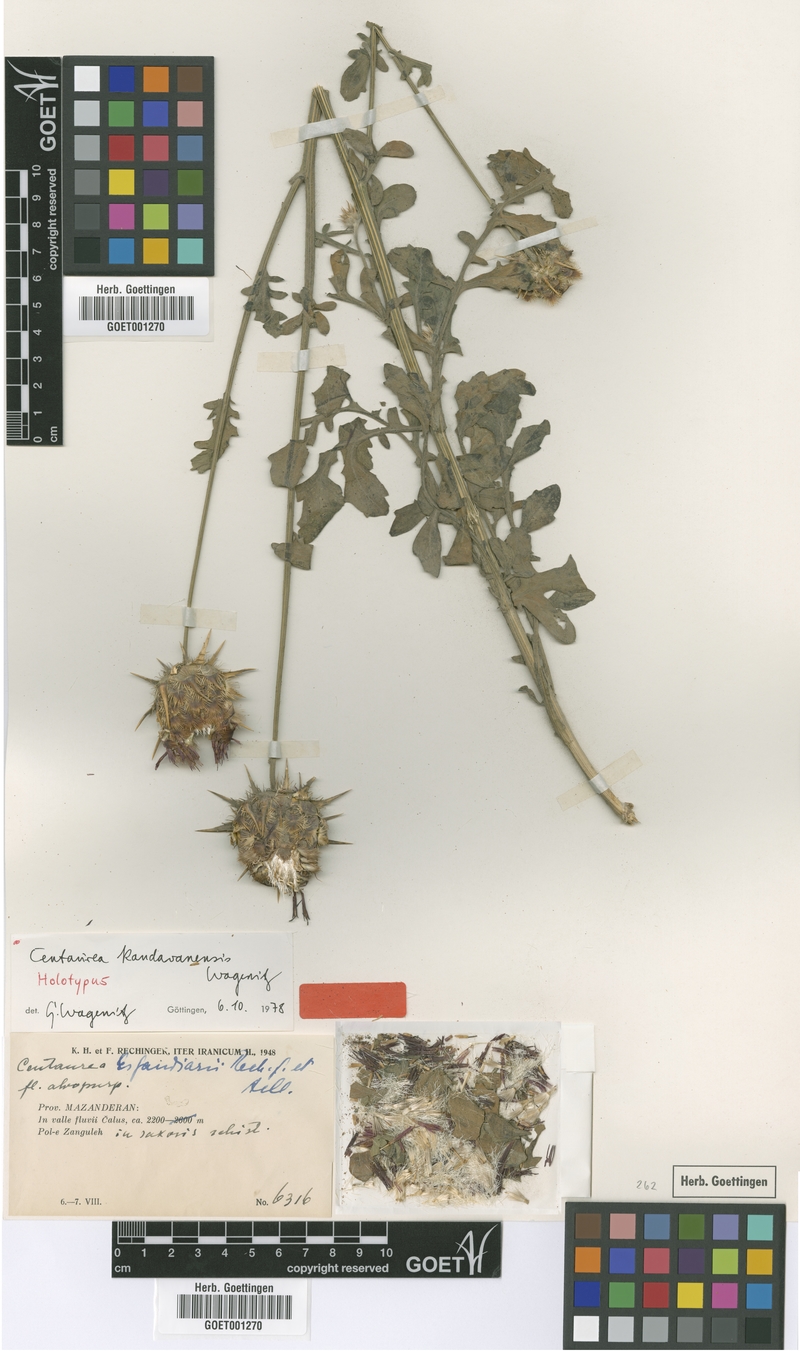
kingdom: Plantae
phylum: Tracheophyta
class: Magnoliopsida
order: Asterales
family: Asteraceae
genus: Centaurea
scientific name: Centaurea kandavanensis
